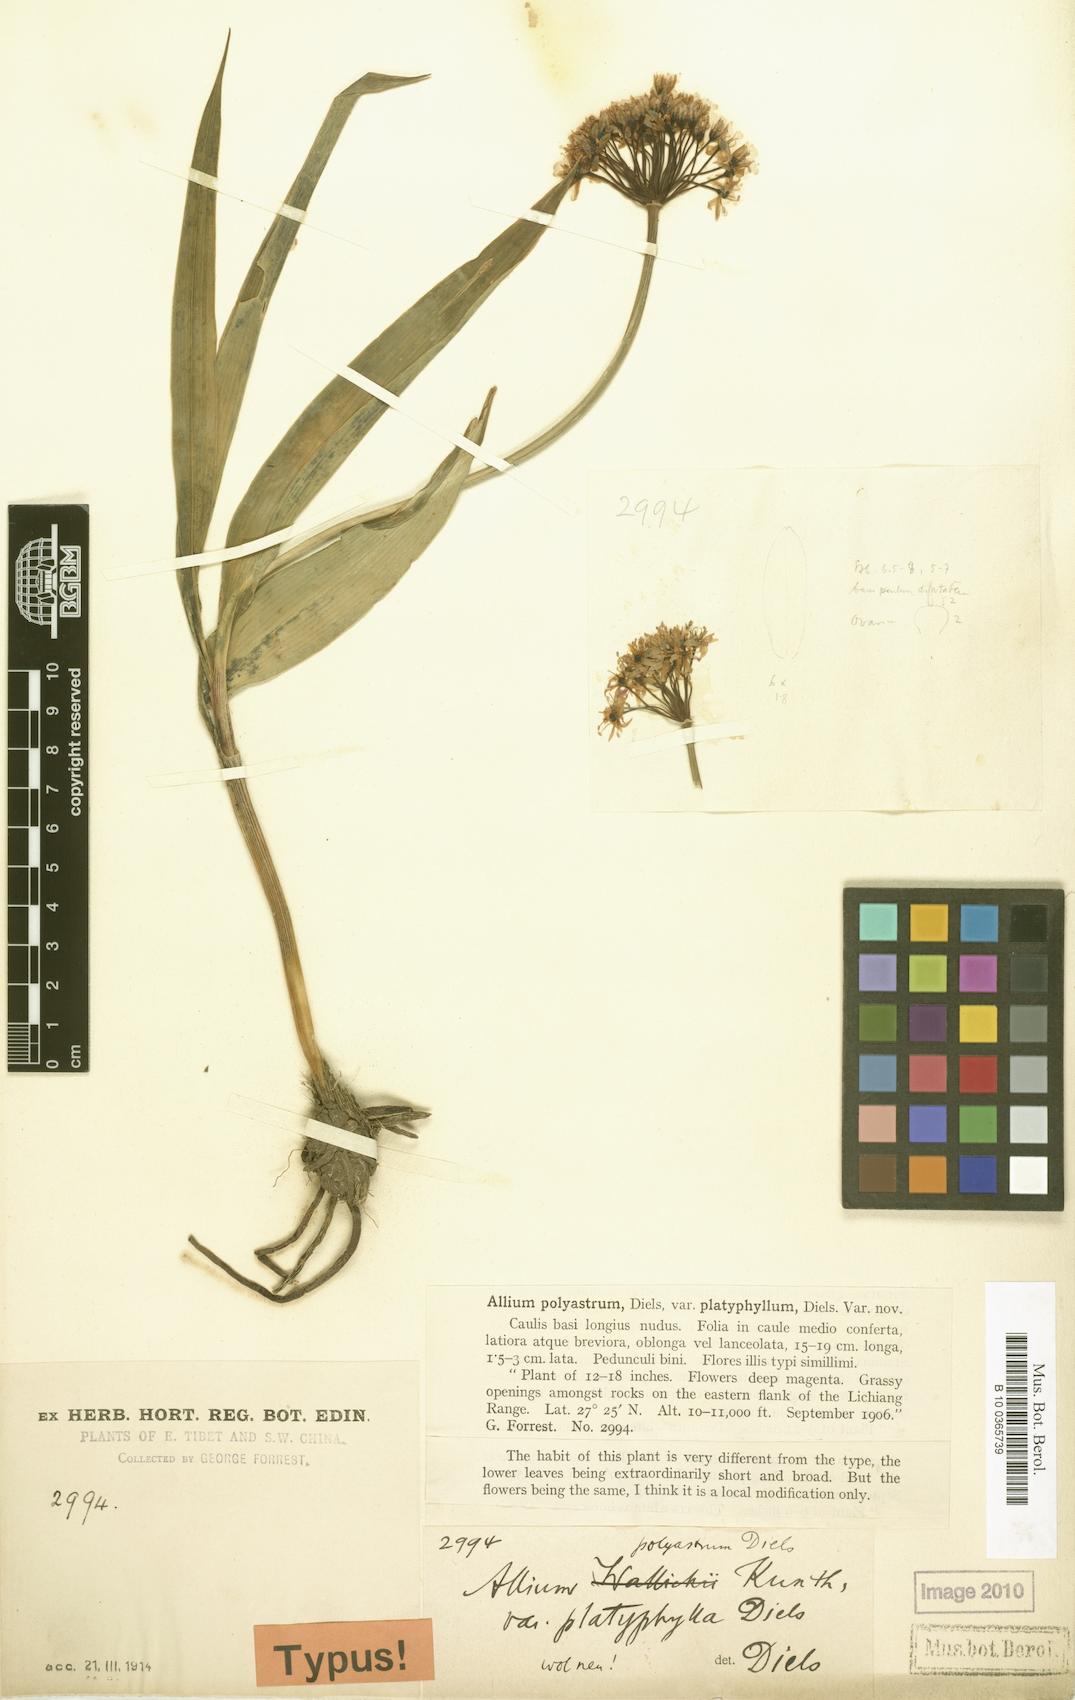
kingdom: Plantae
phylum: Tracheophyta
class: Liliopsida
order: Asparagales
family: Amaryllidaceae
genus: Allium
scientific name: Allium wallichii
